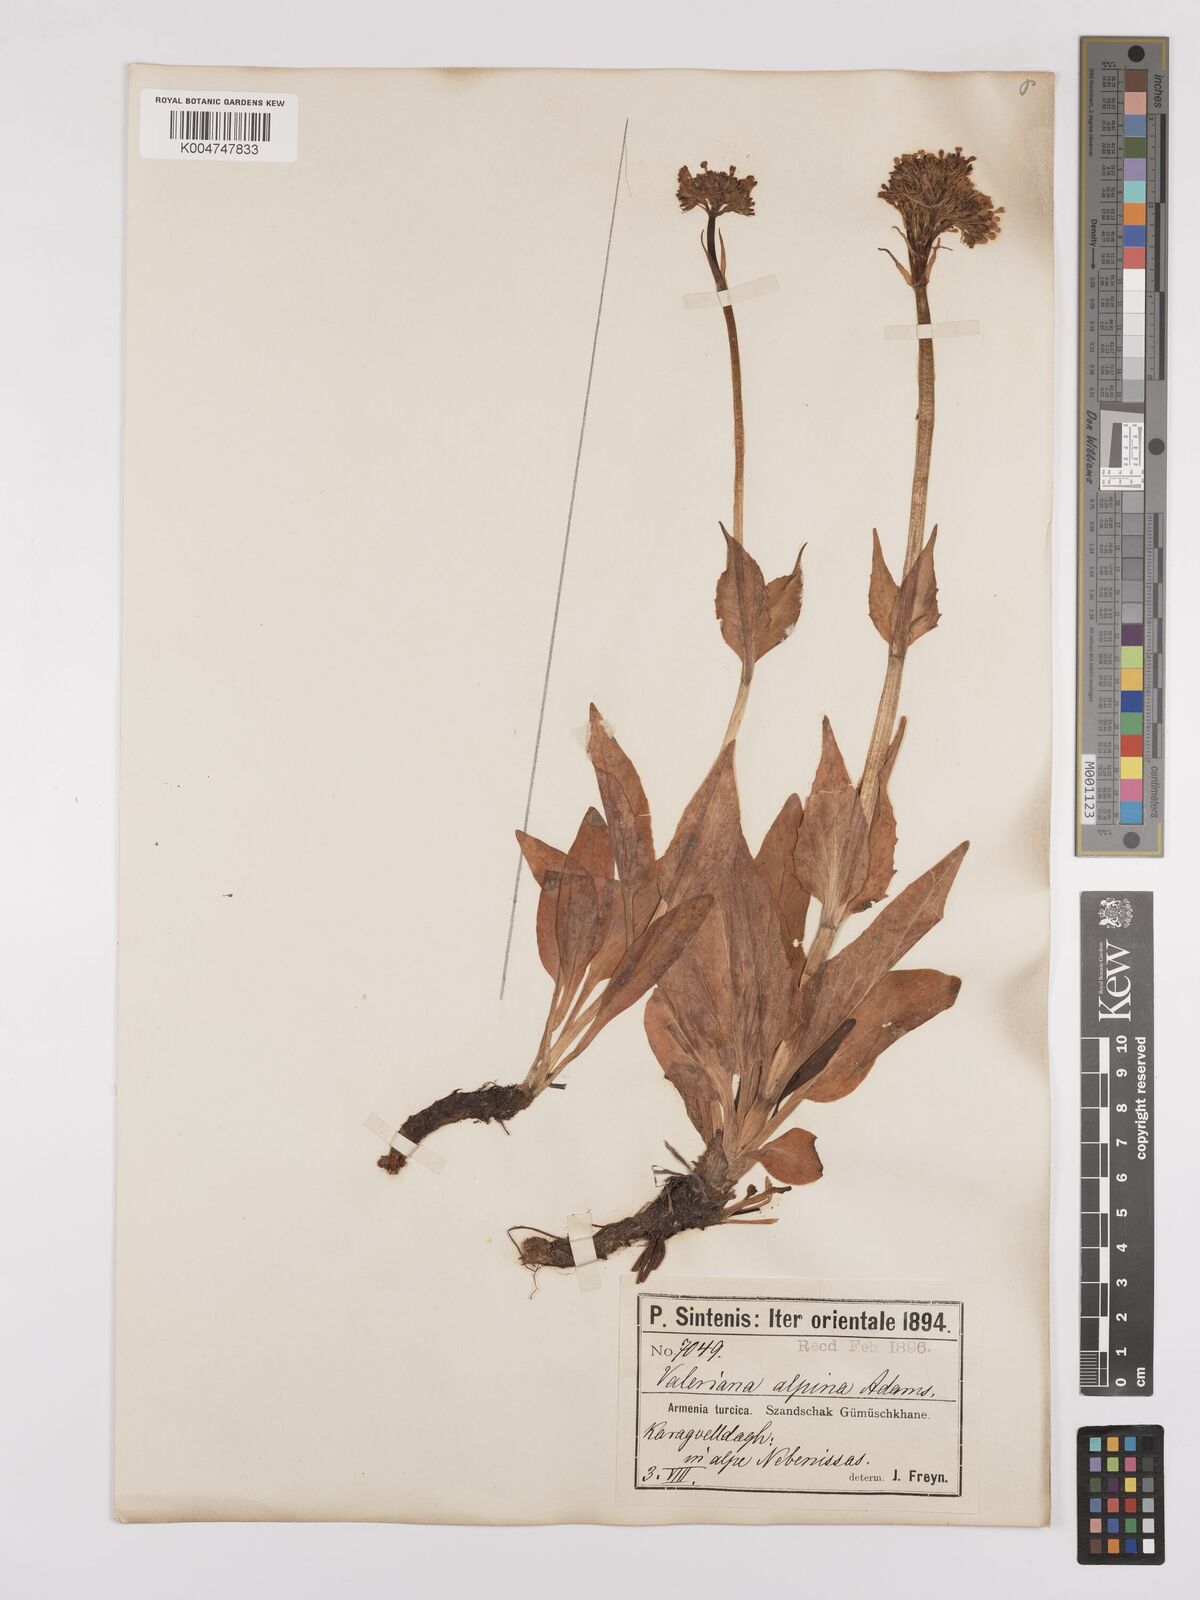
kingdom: Plantae
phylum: Tracheophyta
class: Magnoliopsida
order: Dipsacales
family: Caprifoliaceae
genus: Valeriana
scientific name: Valeriana alpestris
